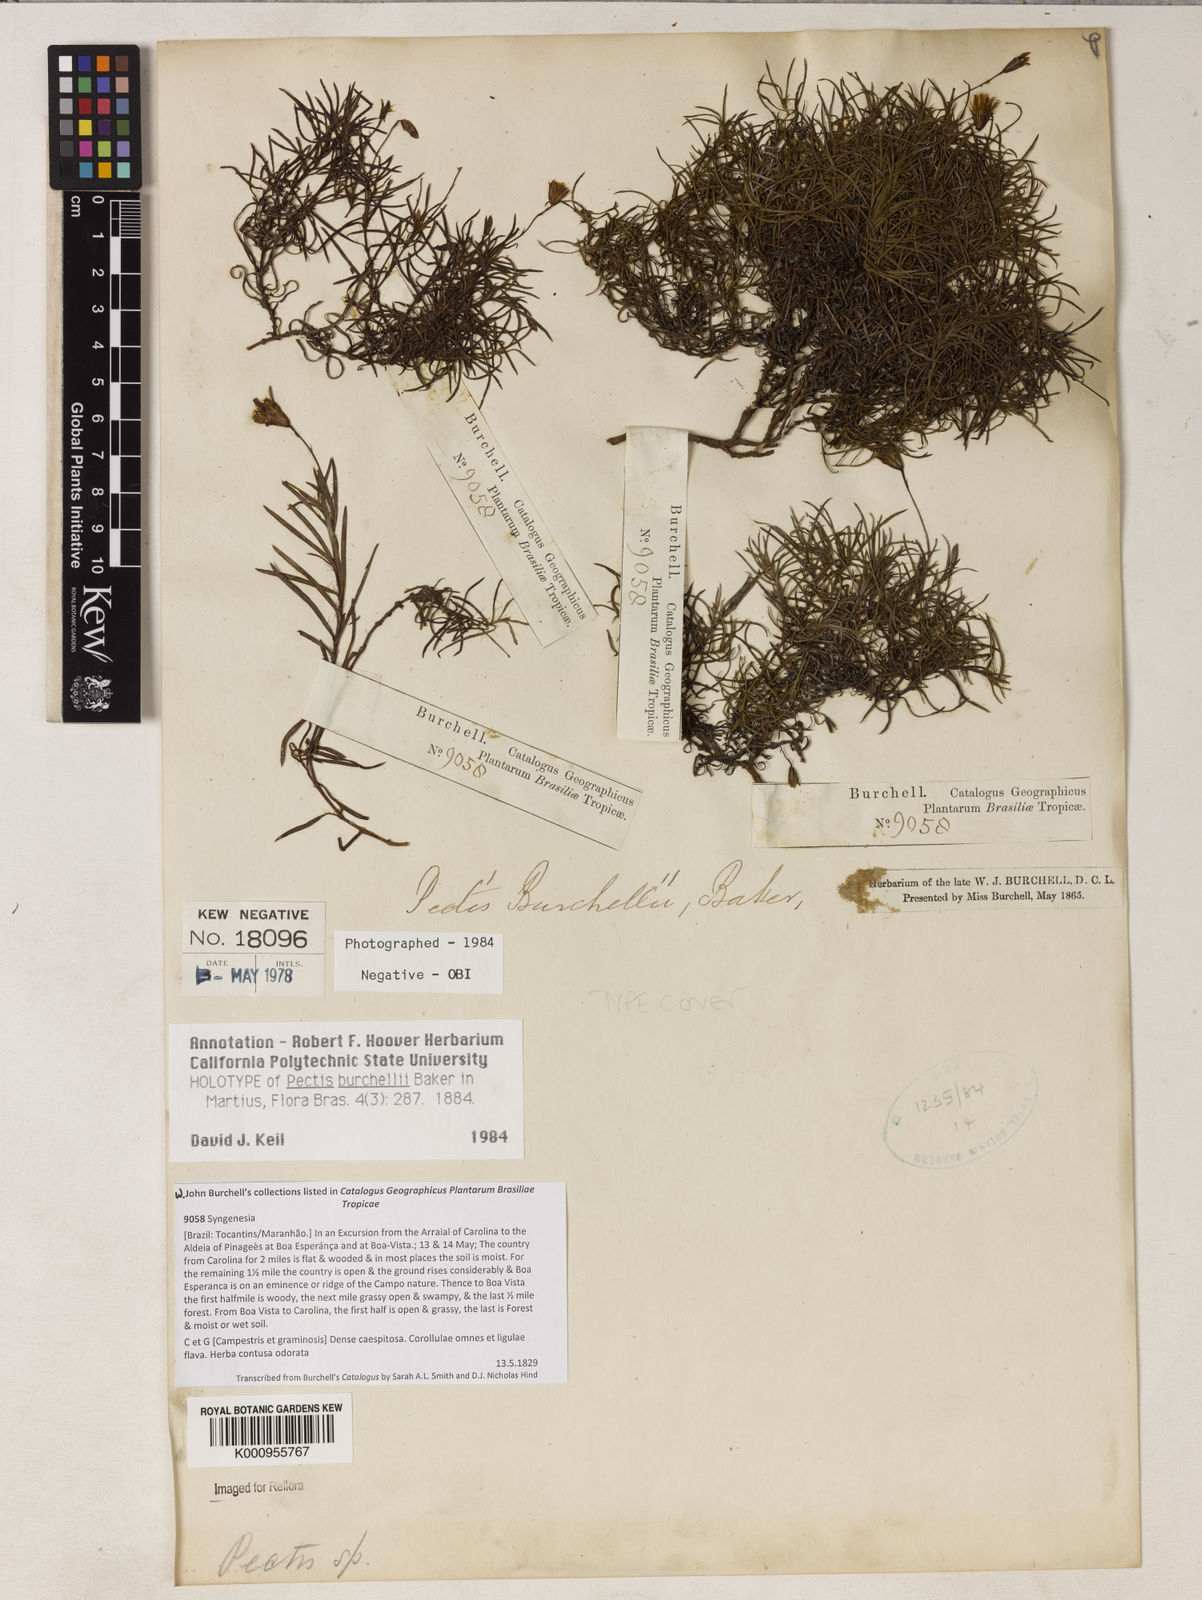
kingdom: Plantae
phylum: Tracheophyta
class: Magnoliopsida
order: Asterales
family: Asteraceae
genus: Pectis
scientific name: Pectis burchellii
